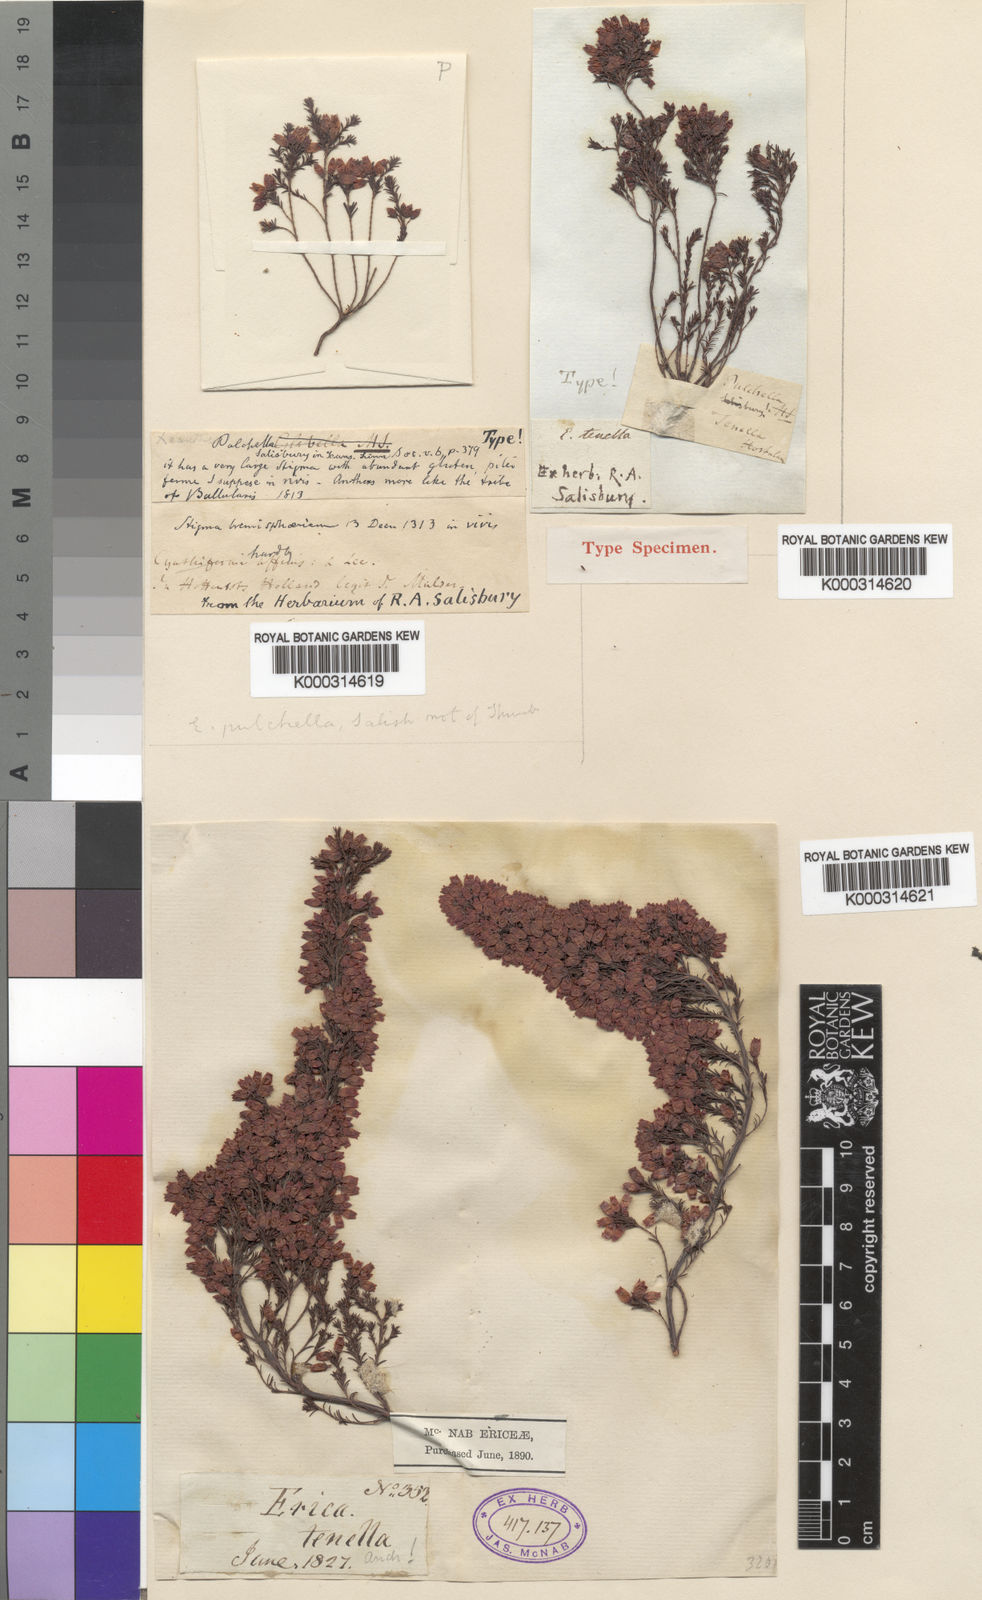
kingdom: Plantae
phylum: Tracheophyta
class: Magnoliopsida
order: Ericales
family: Ericaceae
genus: Erica
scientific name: Erica tenella
